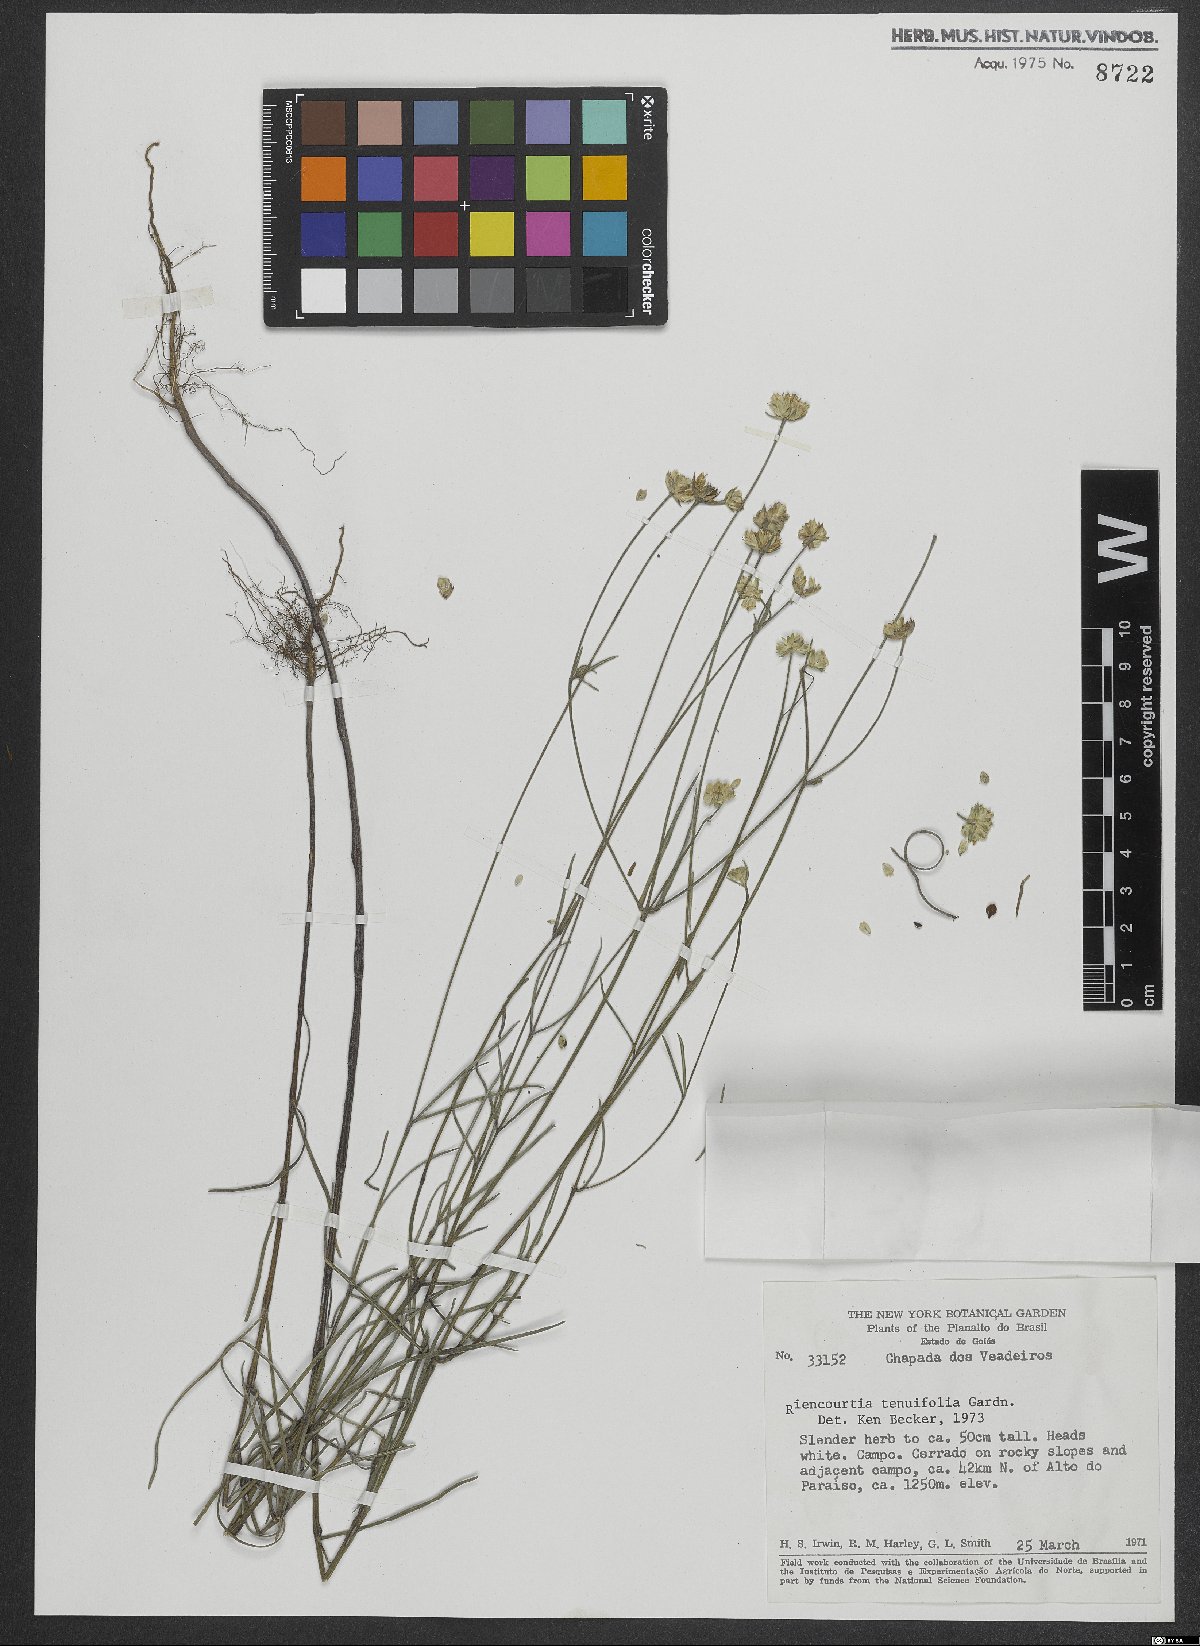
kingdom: Plantae
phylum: Tracheophyta
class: Magnoliopsida
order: Asterales
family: Asteraceae
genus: Riencourtia
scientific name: Riencourtia tenuifolia
